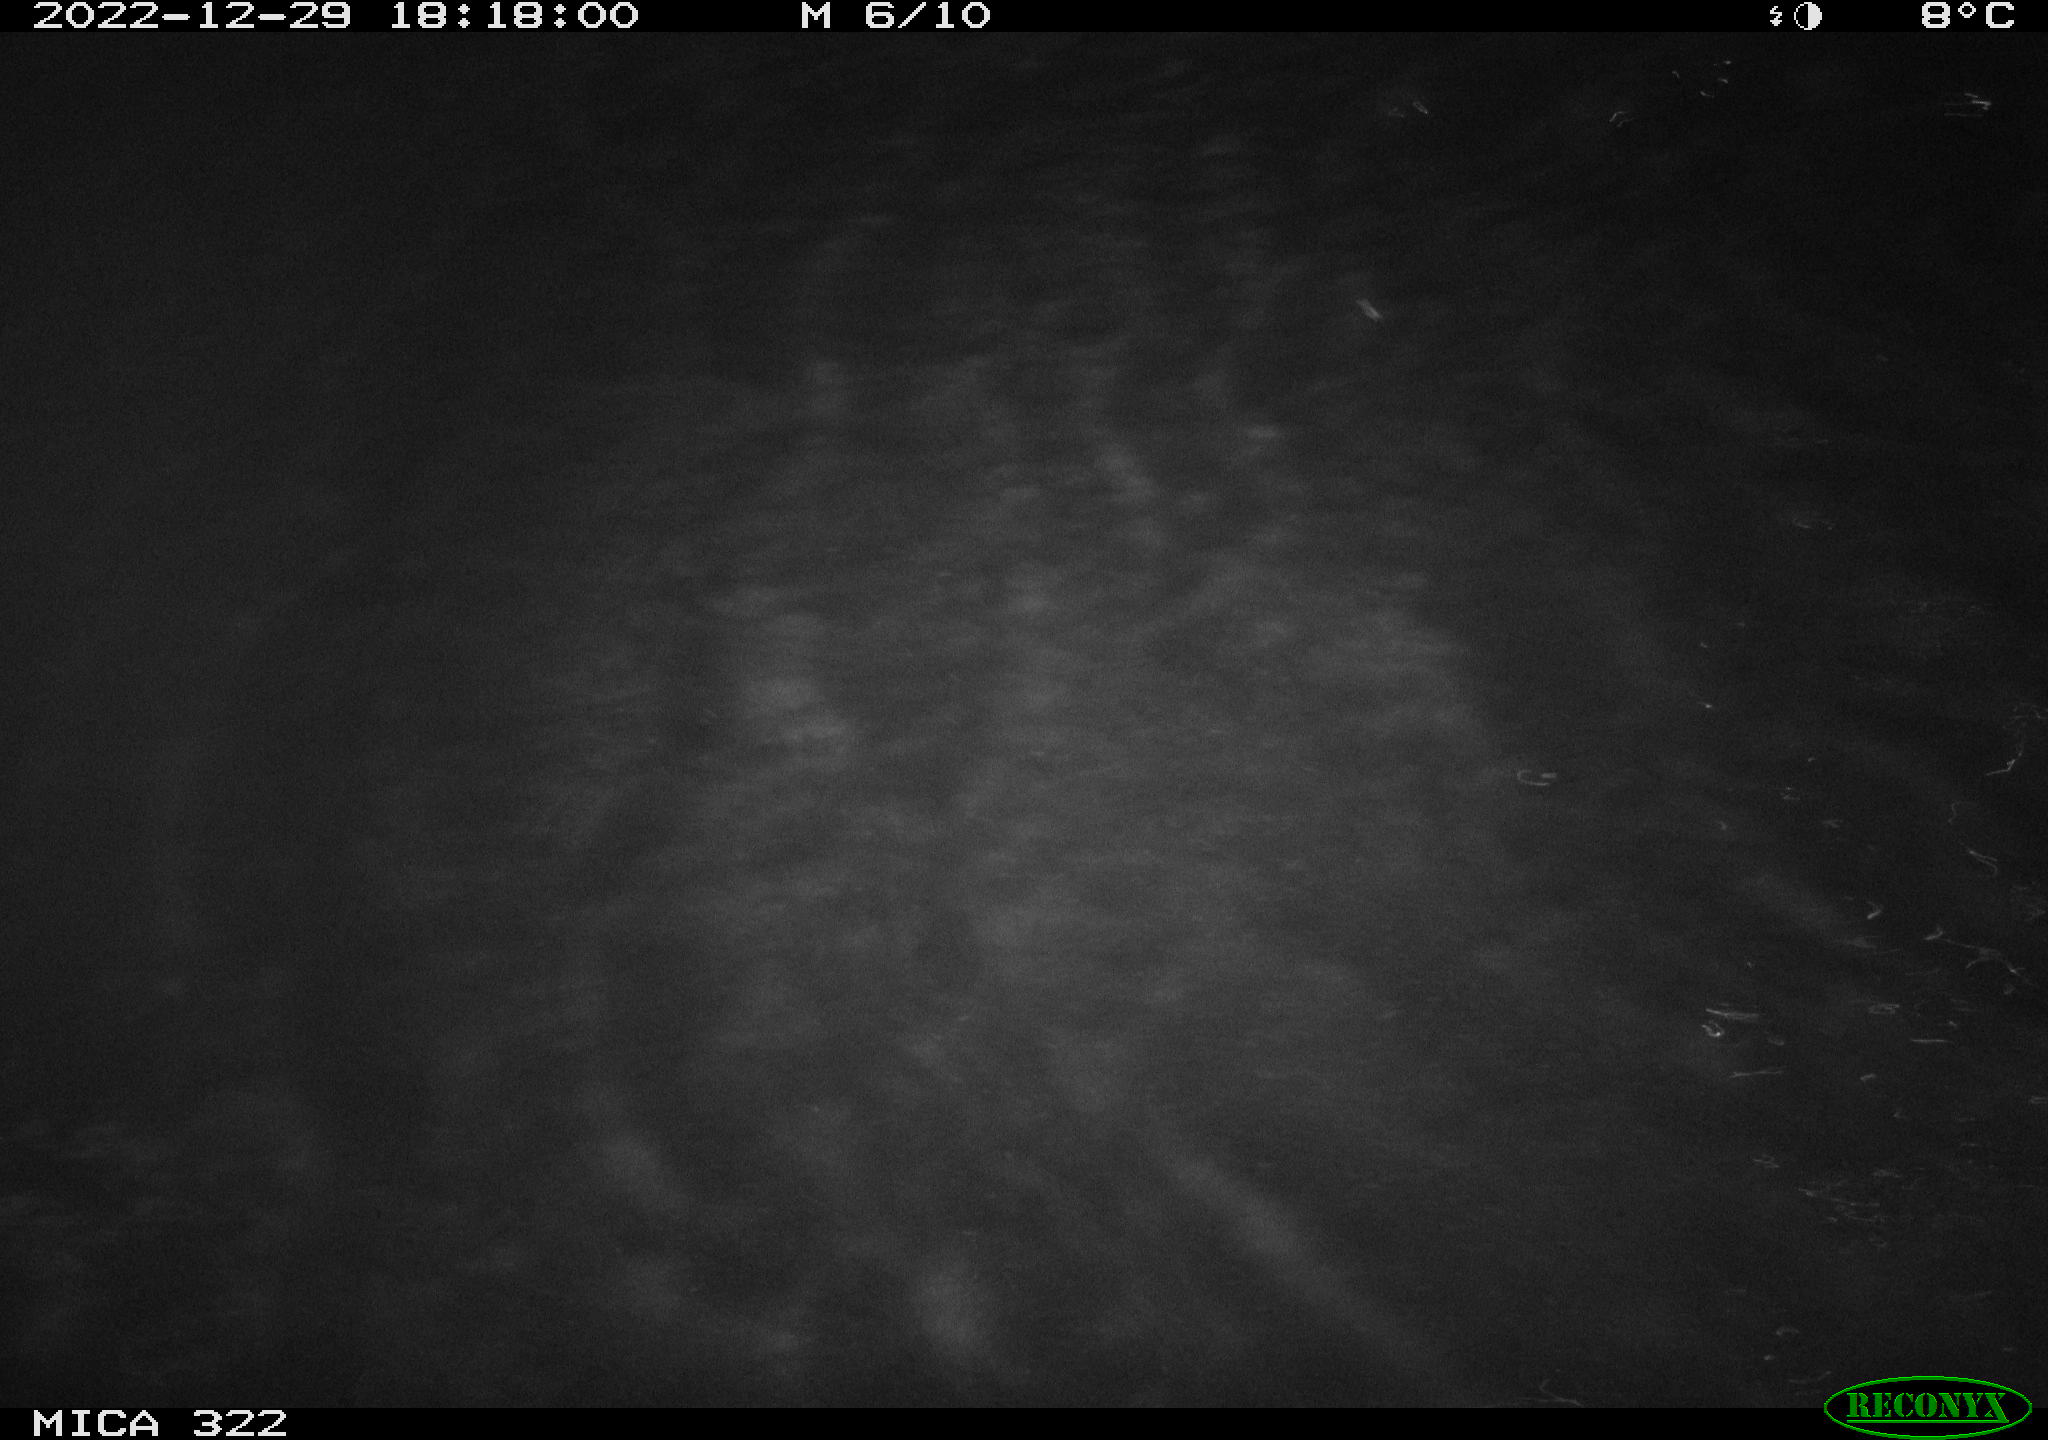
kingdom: Animalia
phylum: Chordata
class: Mammalia
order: Rodentia
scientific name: Rodentia
